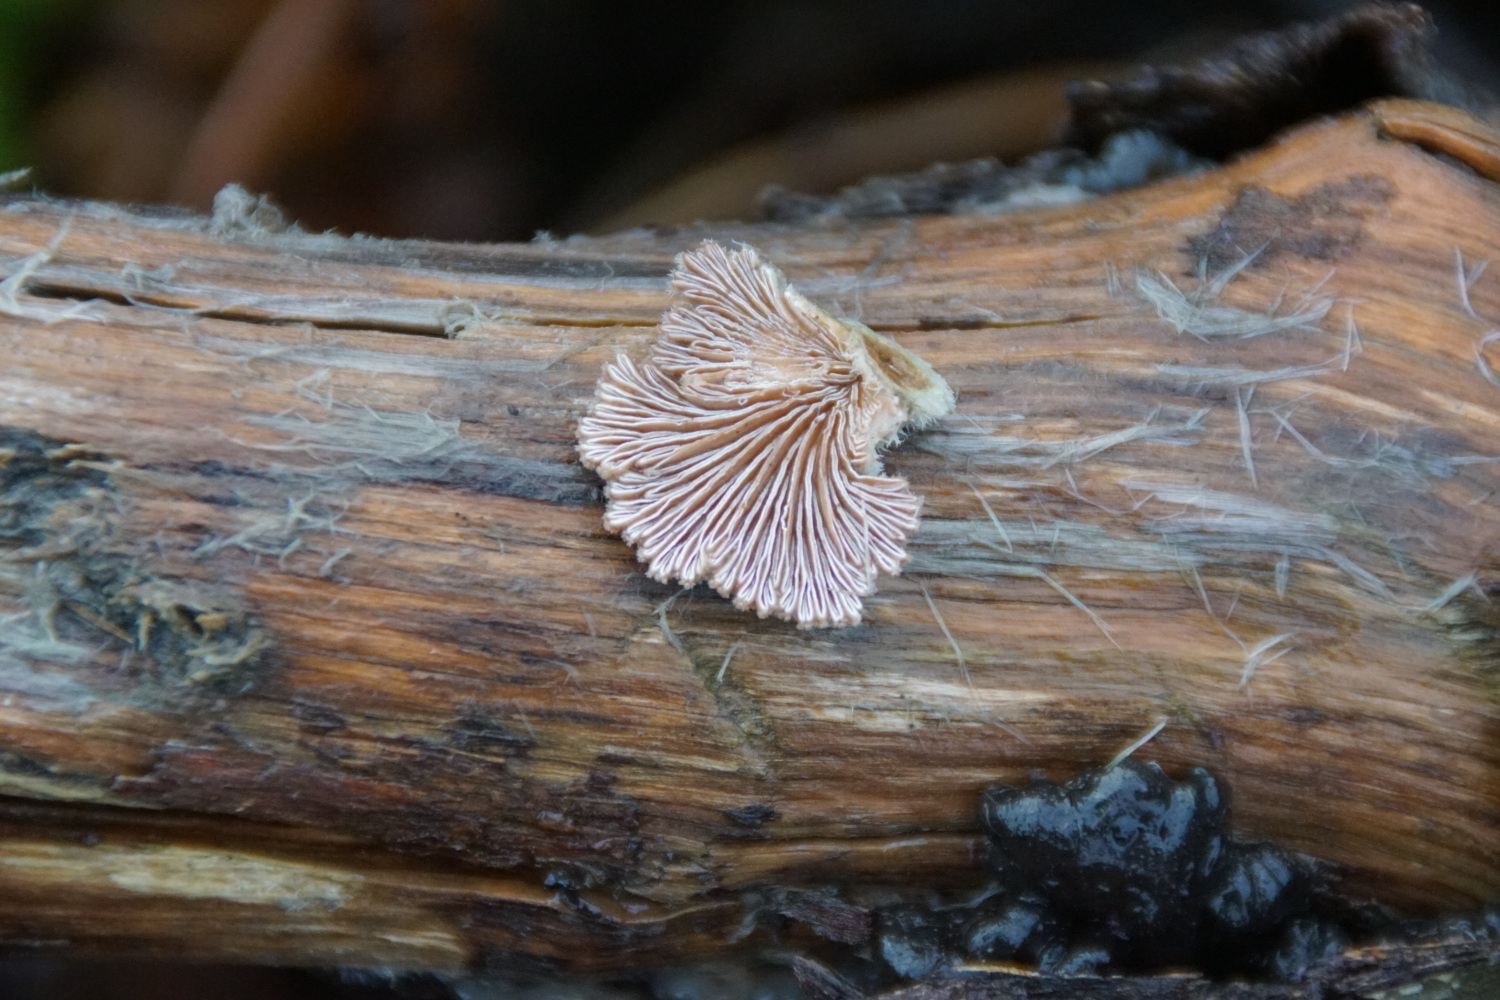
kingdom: Fungi
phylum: Basidiomycota
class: Agaricomycetes
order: Agaricales
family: Schizophyllaceae
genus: Schizophyllum
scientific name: Schizophyllum commune
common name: kløvblad
